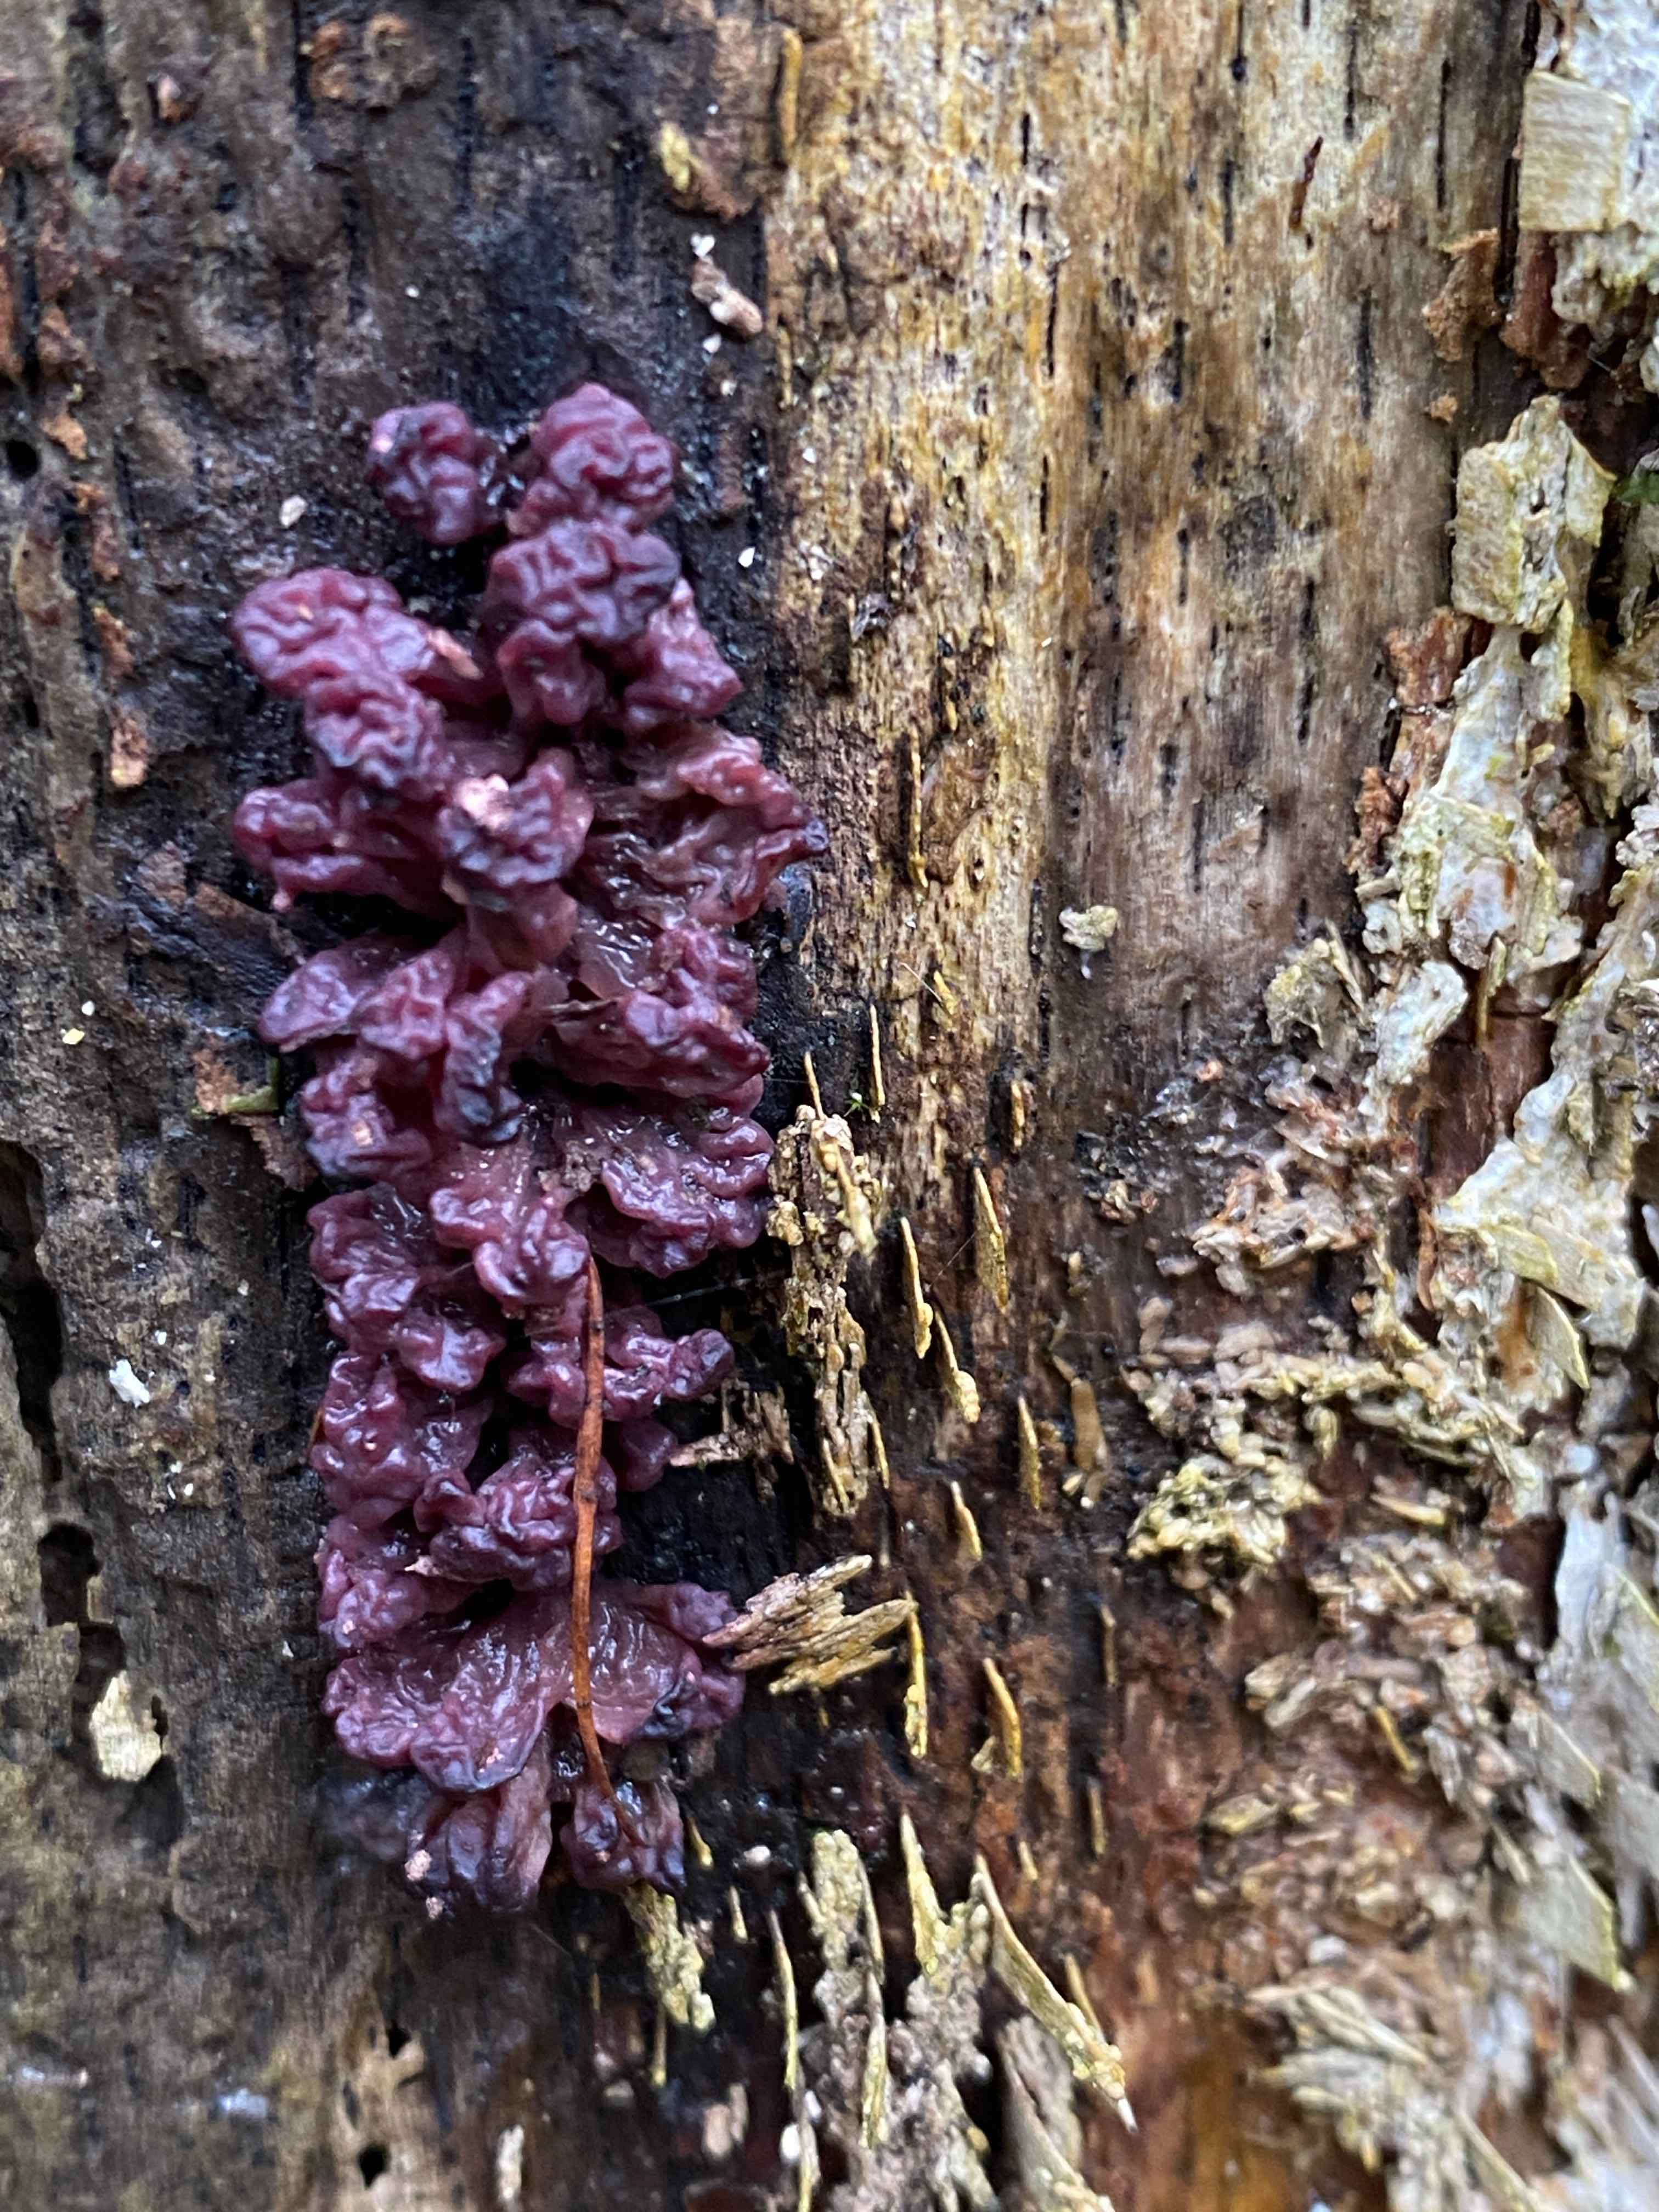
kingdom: Fungi
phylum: Ascomycota
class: Leotiomycetes
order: Helotiales
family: Gelatinodiscaceae
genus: Ascocoryne
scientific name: Ascocoryne sarcoides
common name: rødlilla sejskive
